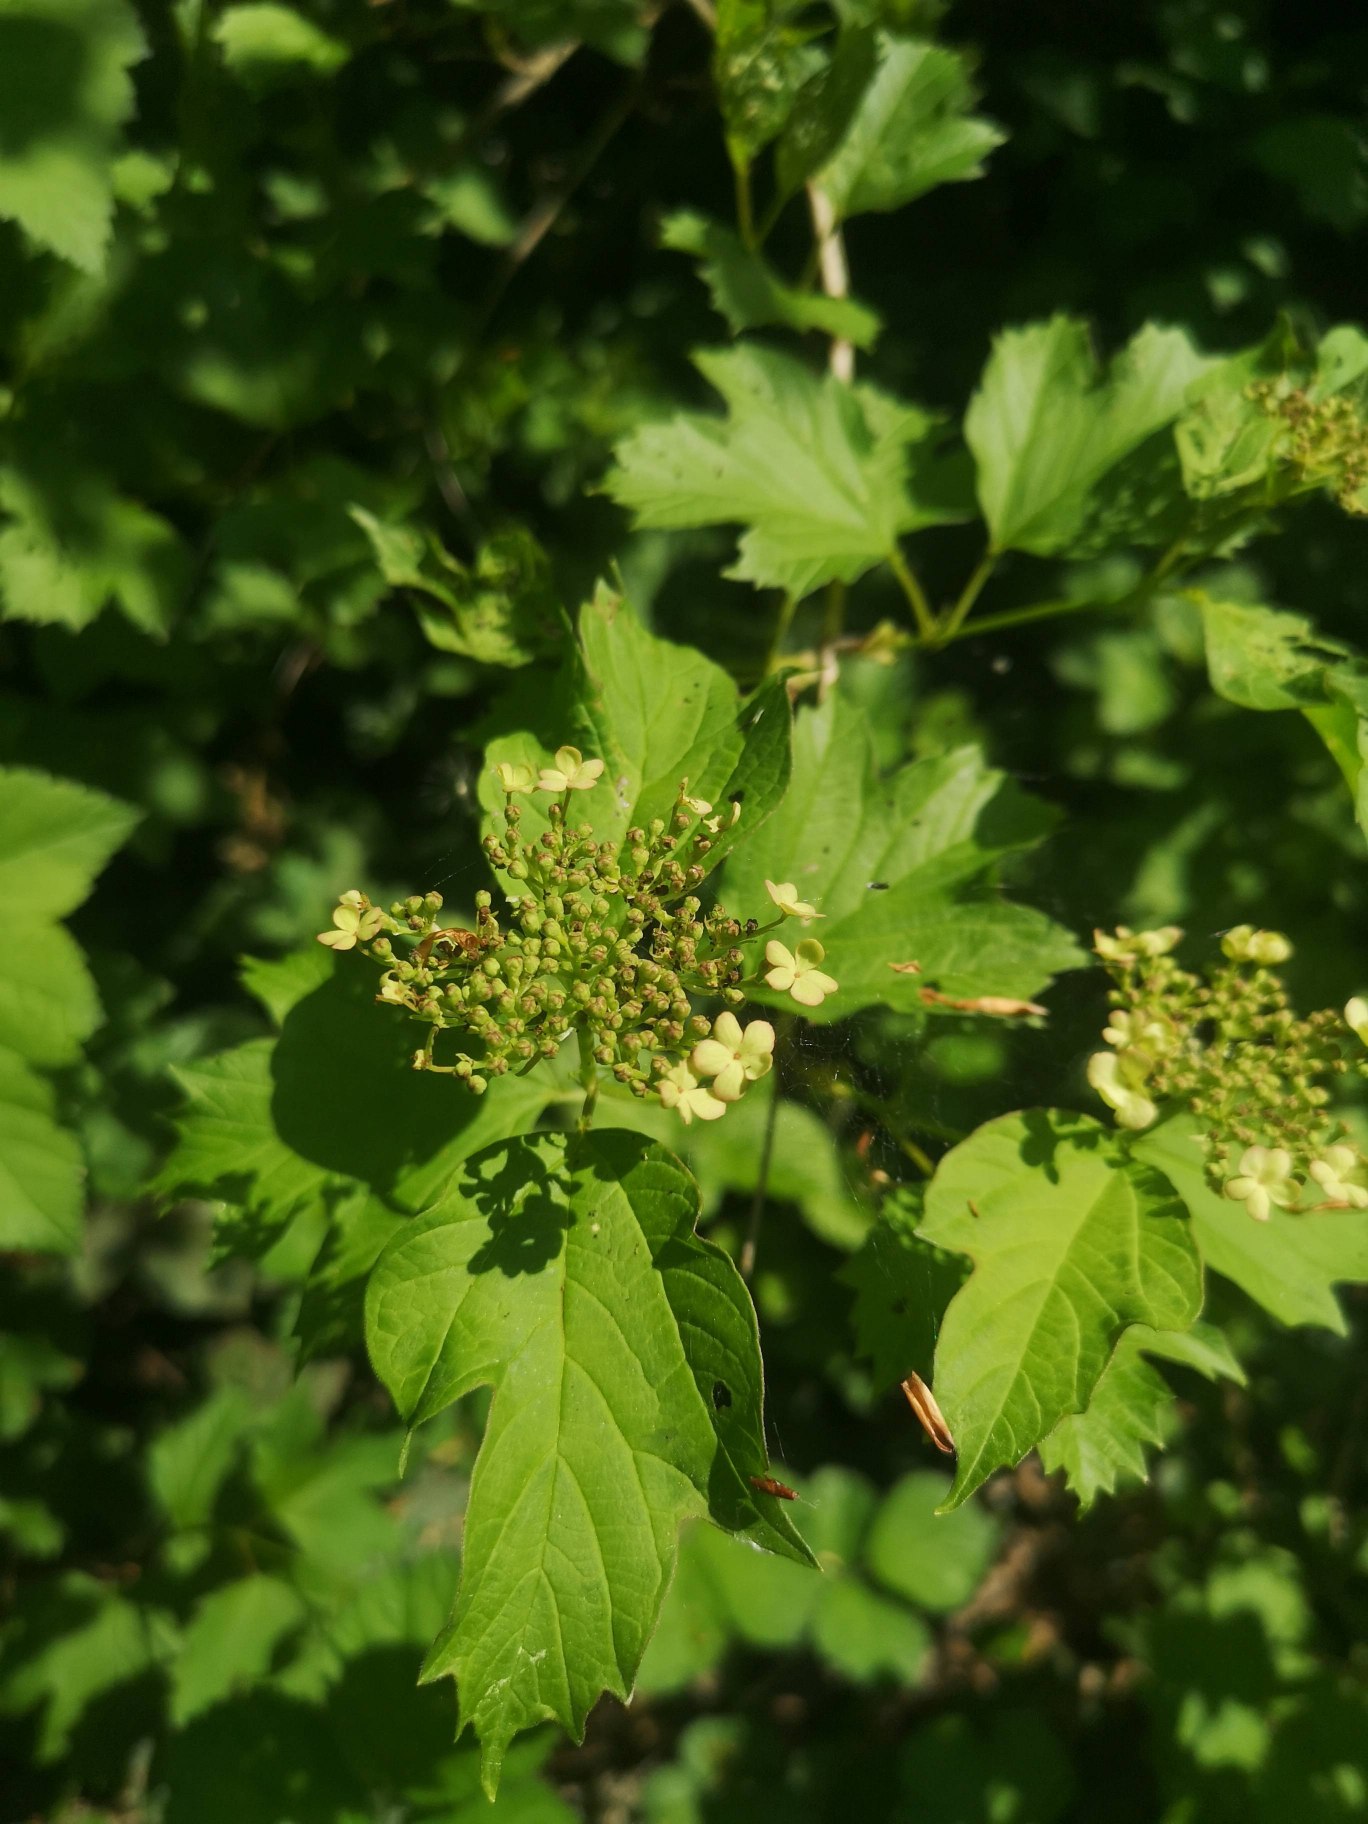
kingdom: Plantae
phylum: Tracheophyta
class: Magnoliopsida
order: Dipsacales
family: Viburnaceae
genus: Viburnum
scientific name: Viburnum opulus
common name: Kvalkved
